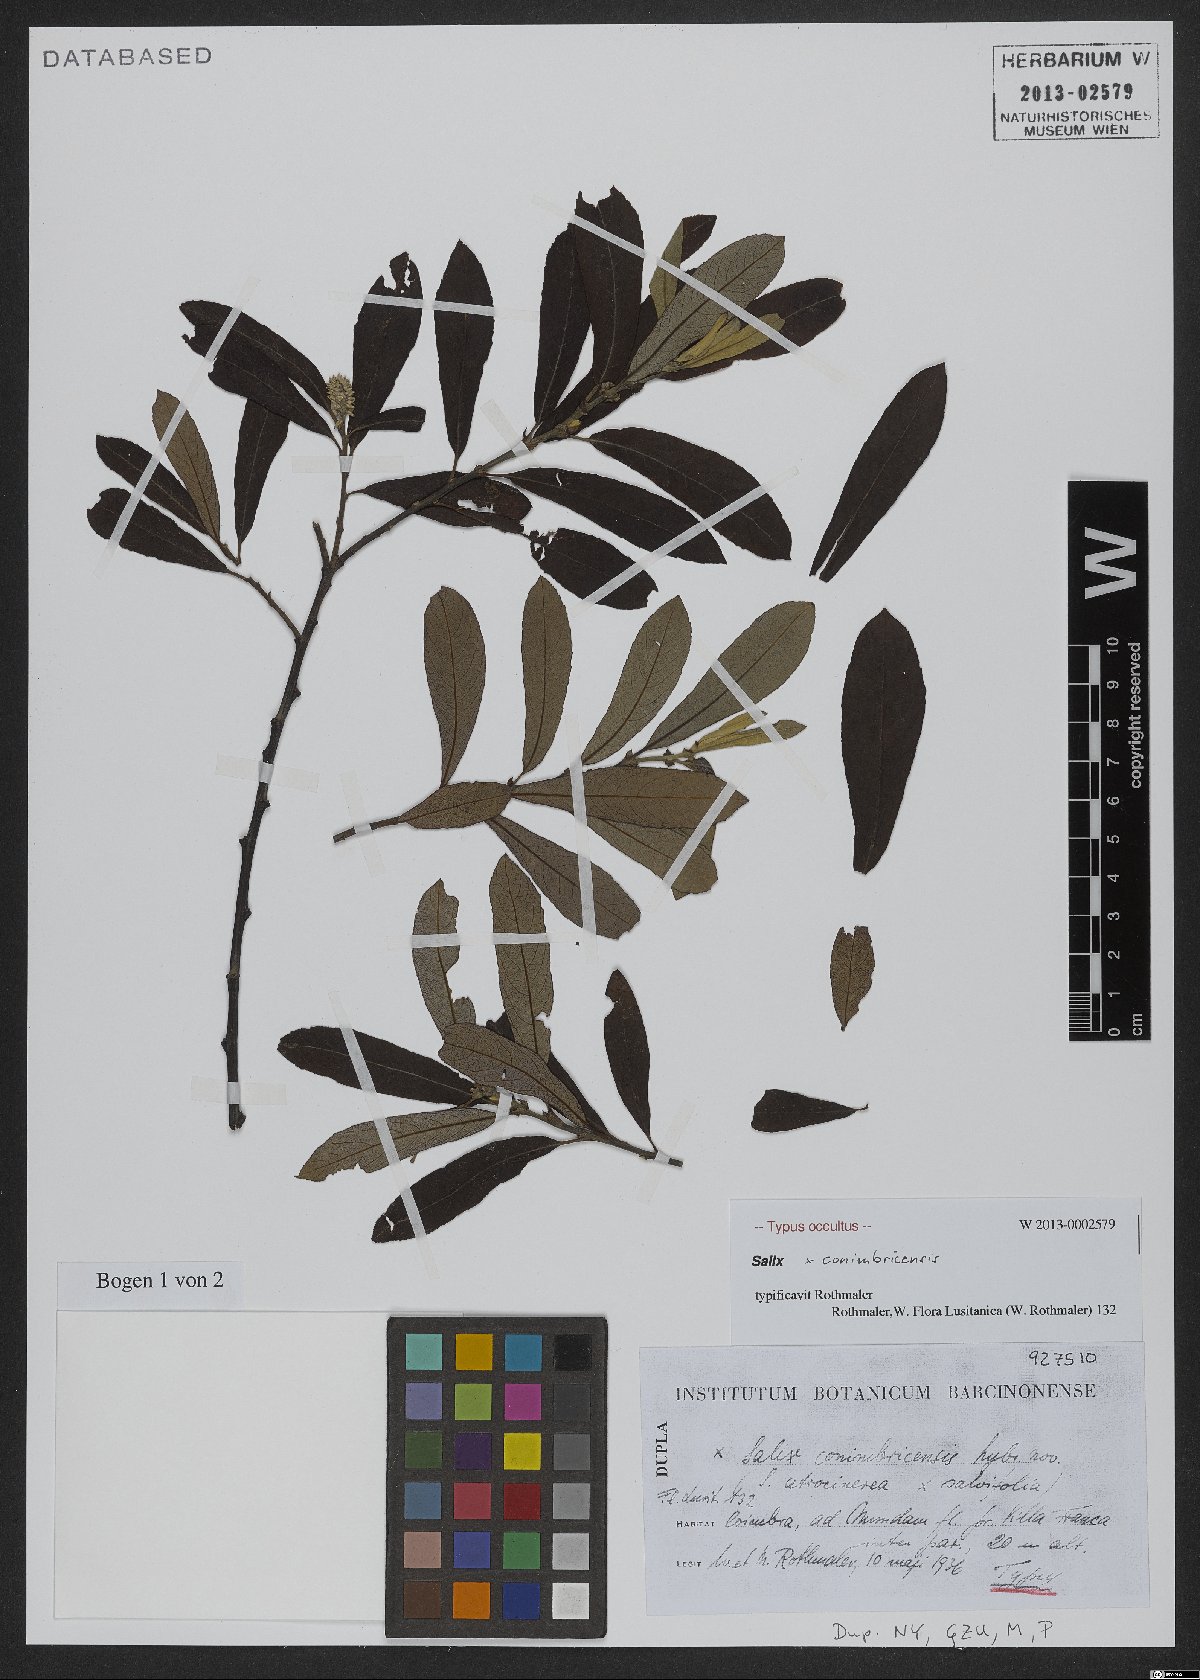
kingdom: Plantae
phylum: Tracheophyta
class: Magnoliopsida
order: Malpighiales
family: Salicaceae
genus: Salix
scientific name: Salix
